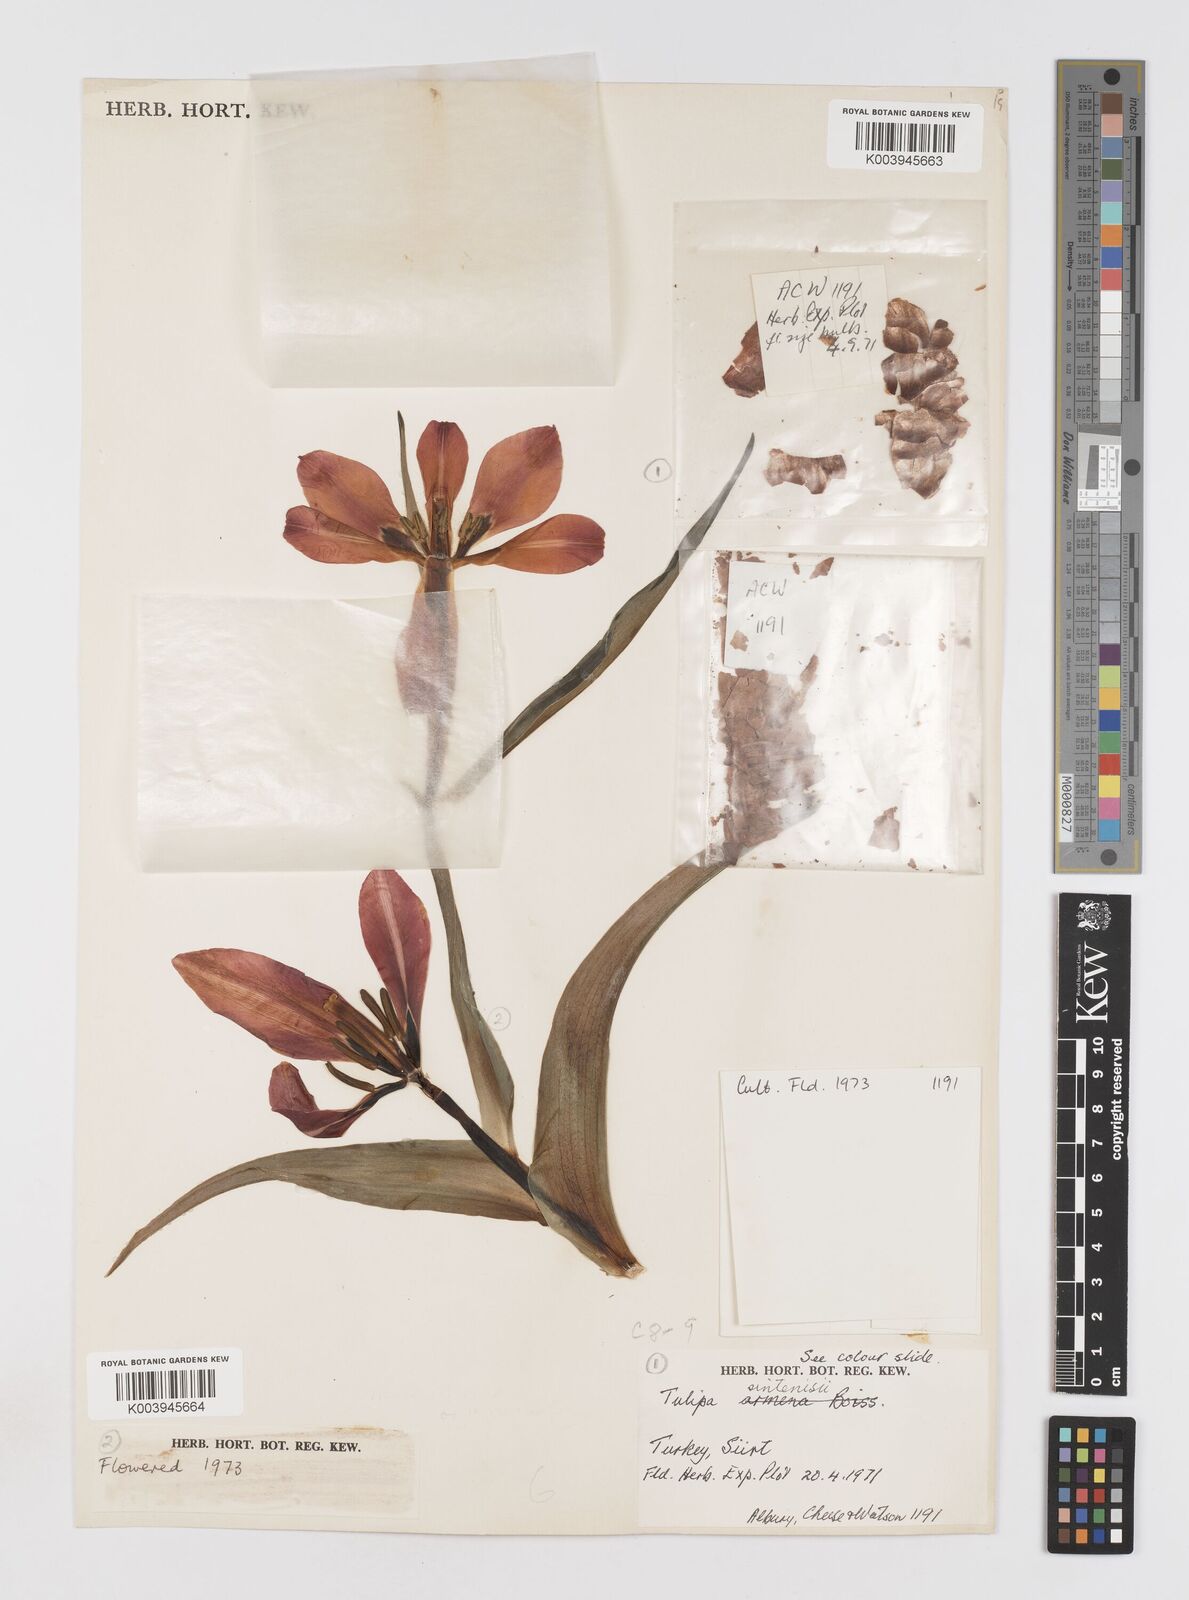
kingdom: Plantae
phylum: Tracheophyta
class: Liliopsida
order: Liliales
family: Liliaceae
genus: Tulipa
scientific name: Tulipa aleppensis
